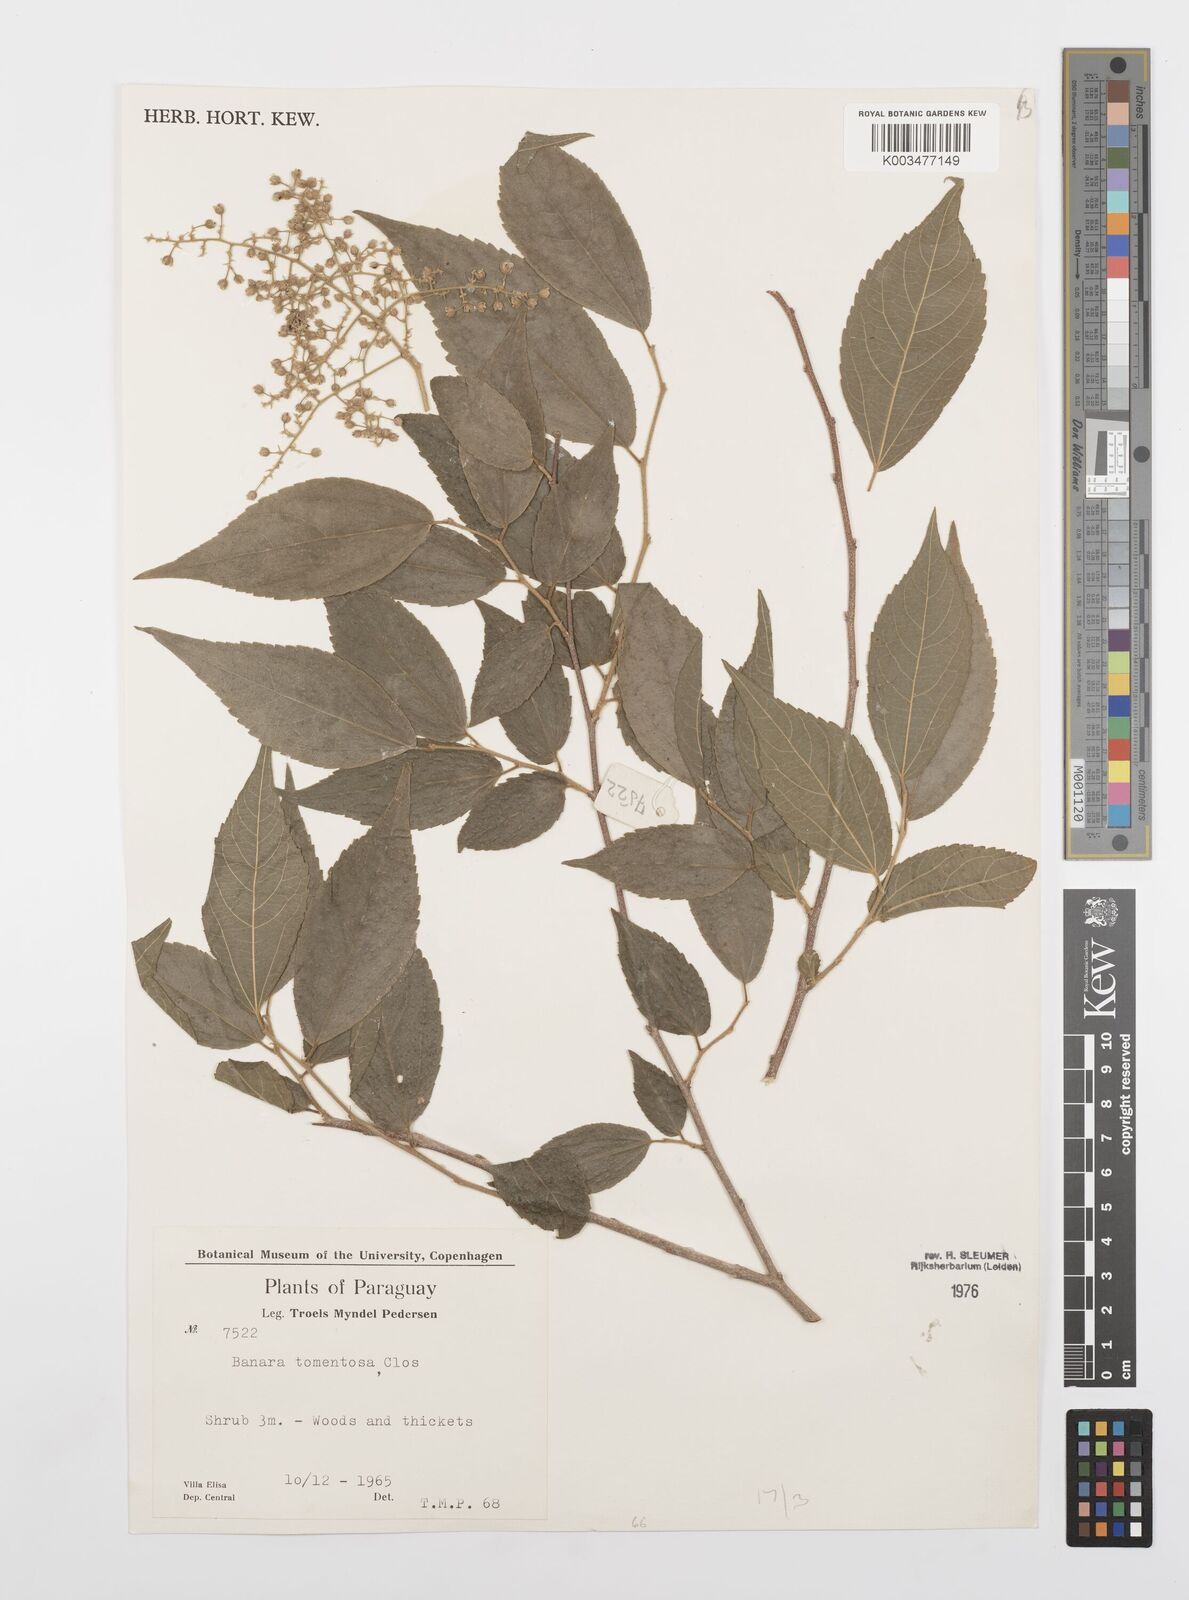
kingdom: Plantae
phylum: Tracheophyta
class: Magnoliopsida
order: Malpighiales
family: Salicaceae
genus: Banara
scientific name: Banara tomentosa
